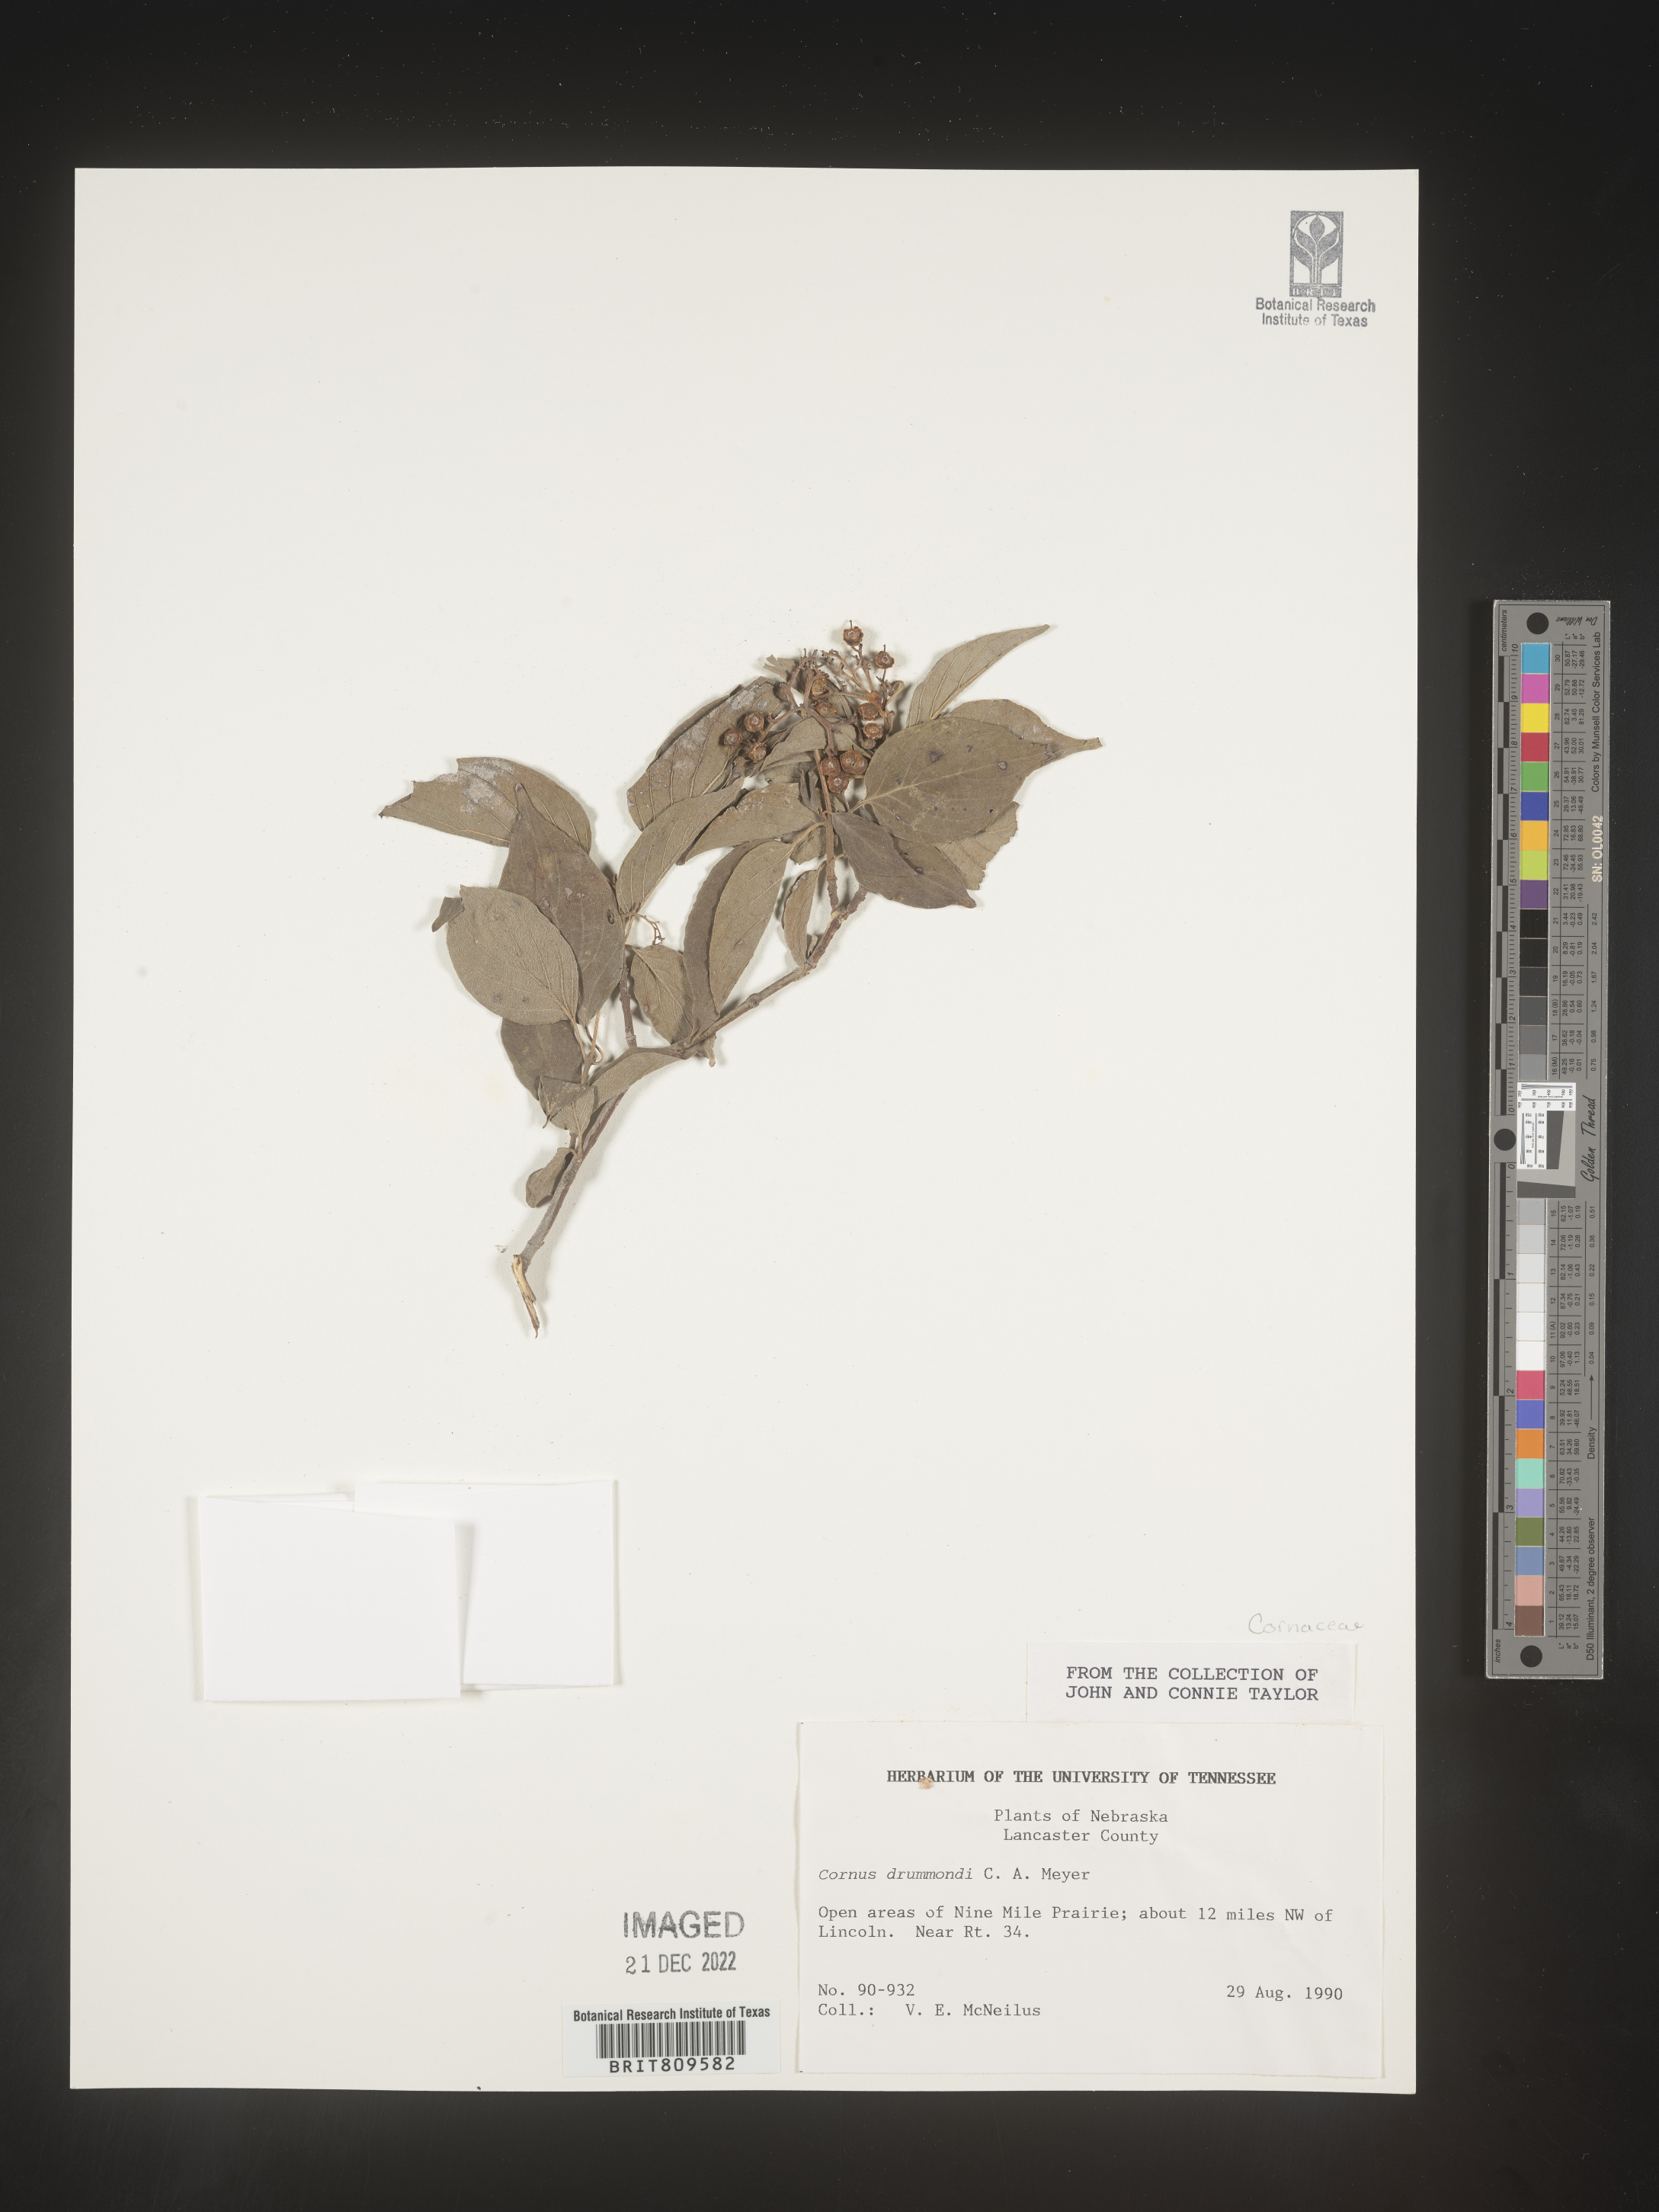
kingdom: Plantae
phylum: Tracheophyta
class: Magnoliopsida
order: Cornales
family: Cornaceae
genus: Cornus
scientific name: Cornus drummondii
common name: Rough-leaf dogwood
